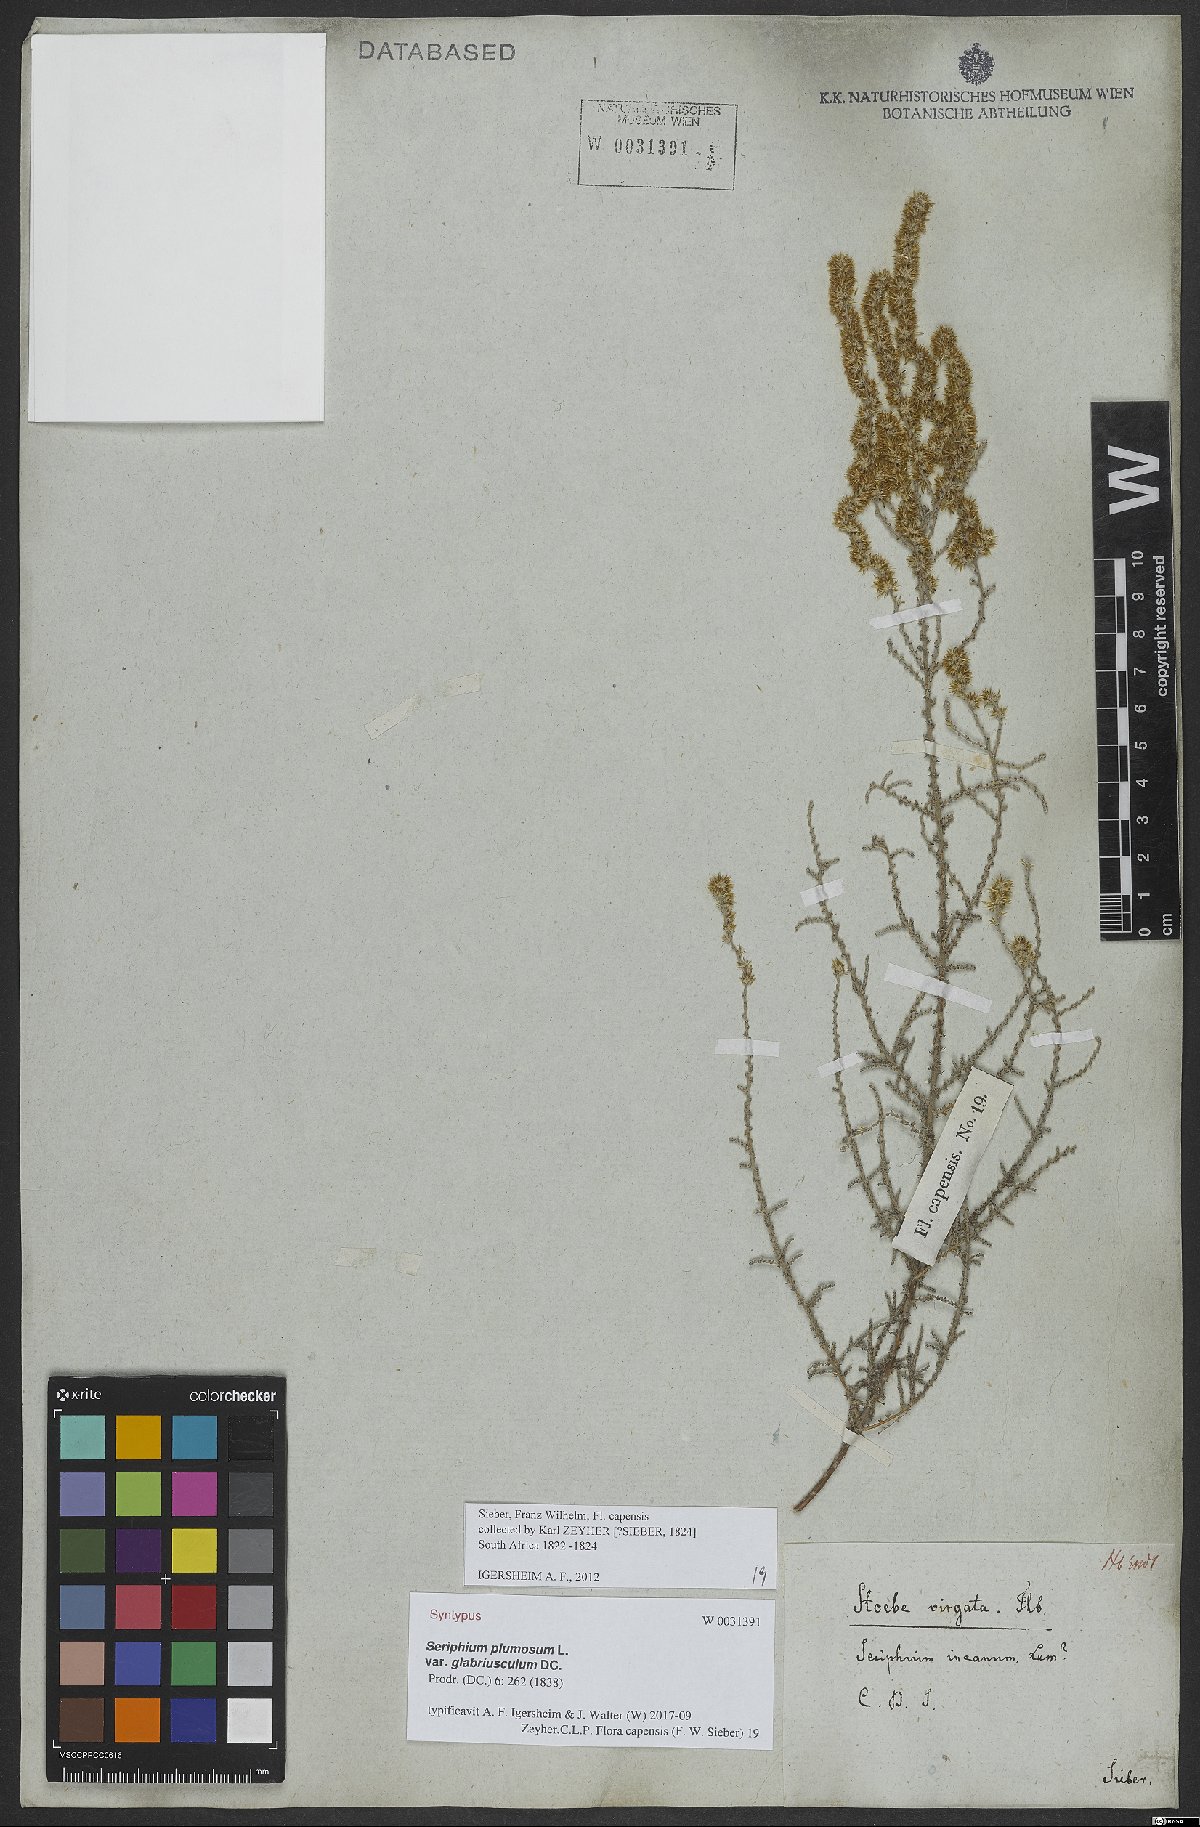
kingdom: Plantae
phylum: Tracheophyta
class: Magnoliopsida
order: Asterales
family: Asteraceae
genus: Seriphium
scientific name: Seriphium plumosum
